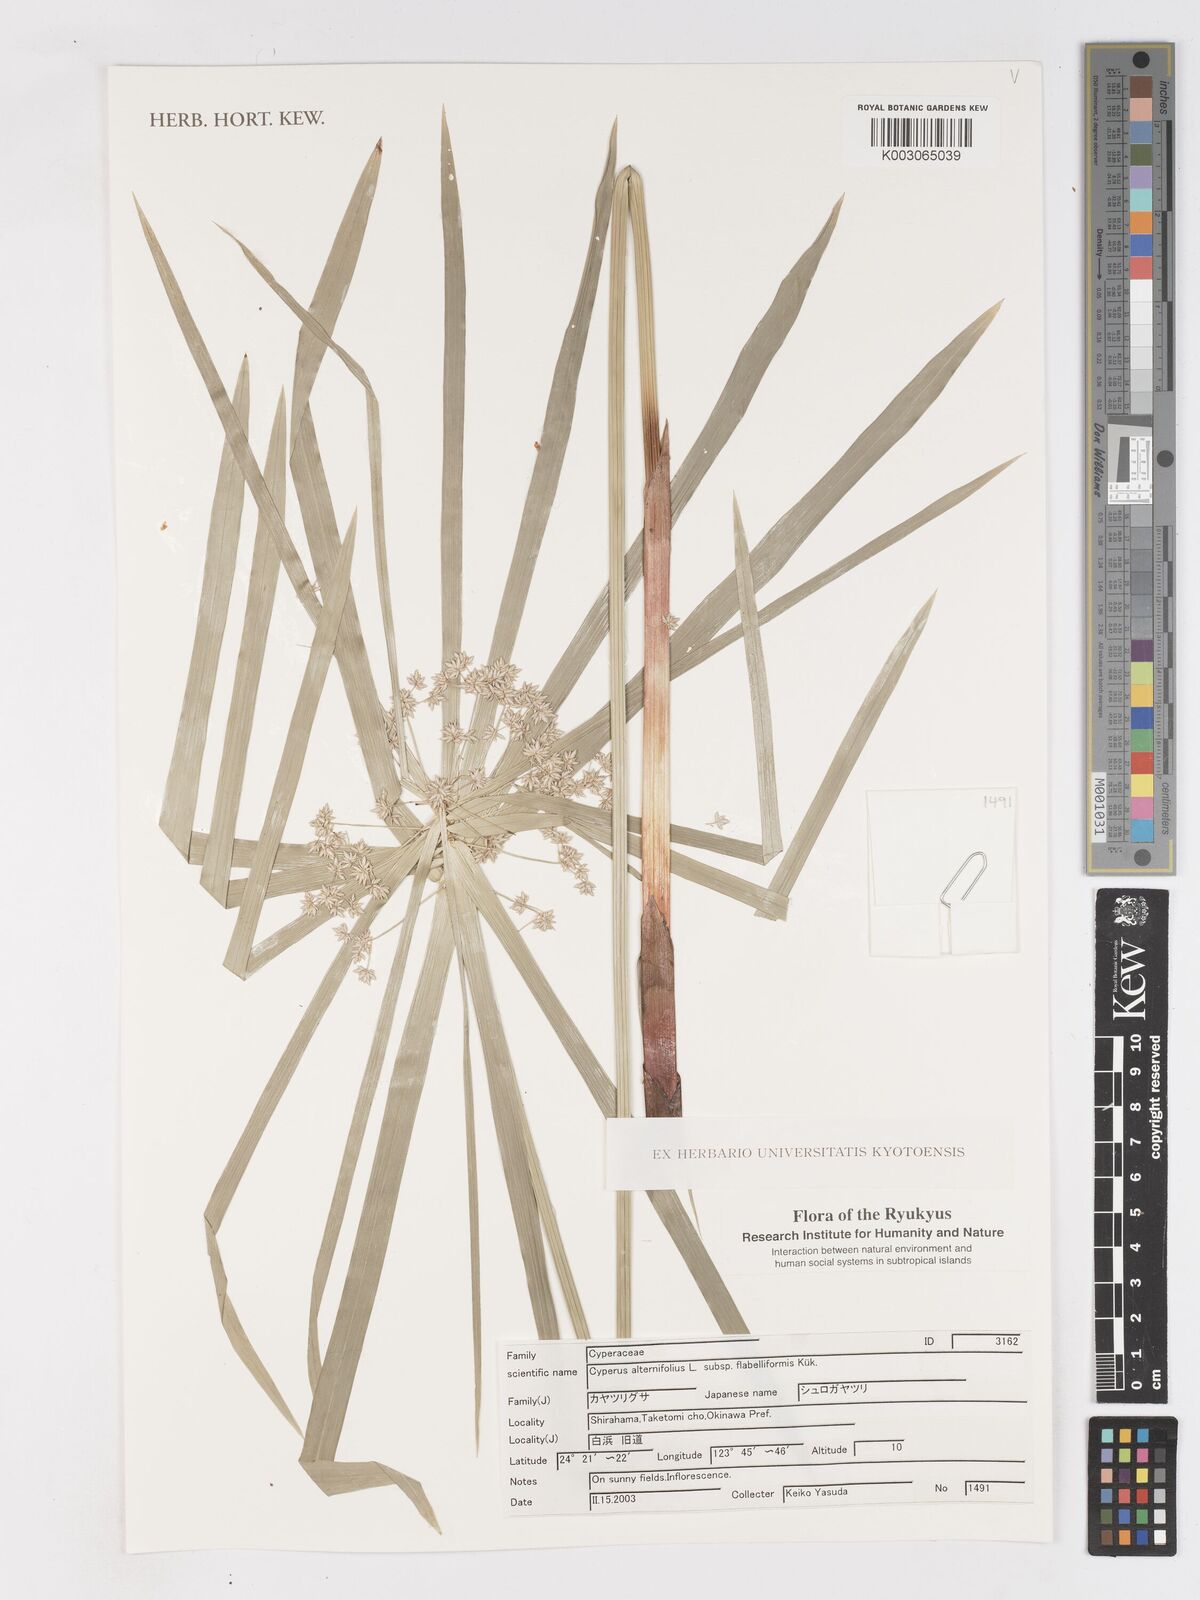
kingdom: Plantae
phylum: Tracheophyta
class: Liliopsida
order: Poales
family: Cyperaceae
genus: Cyperus
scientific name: Cyperus alternifolius
